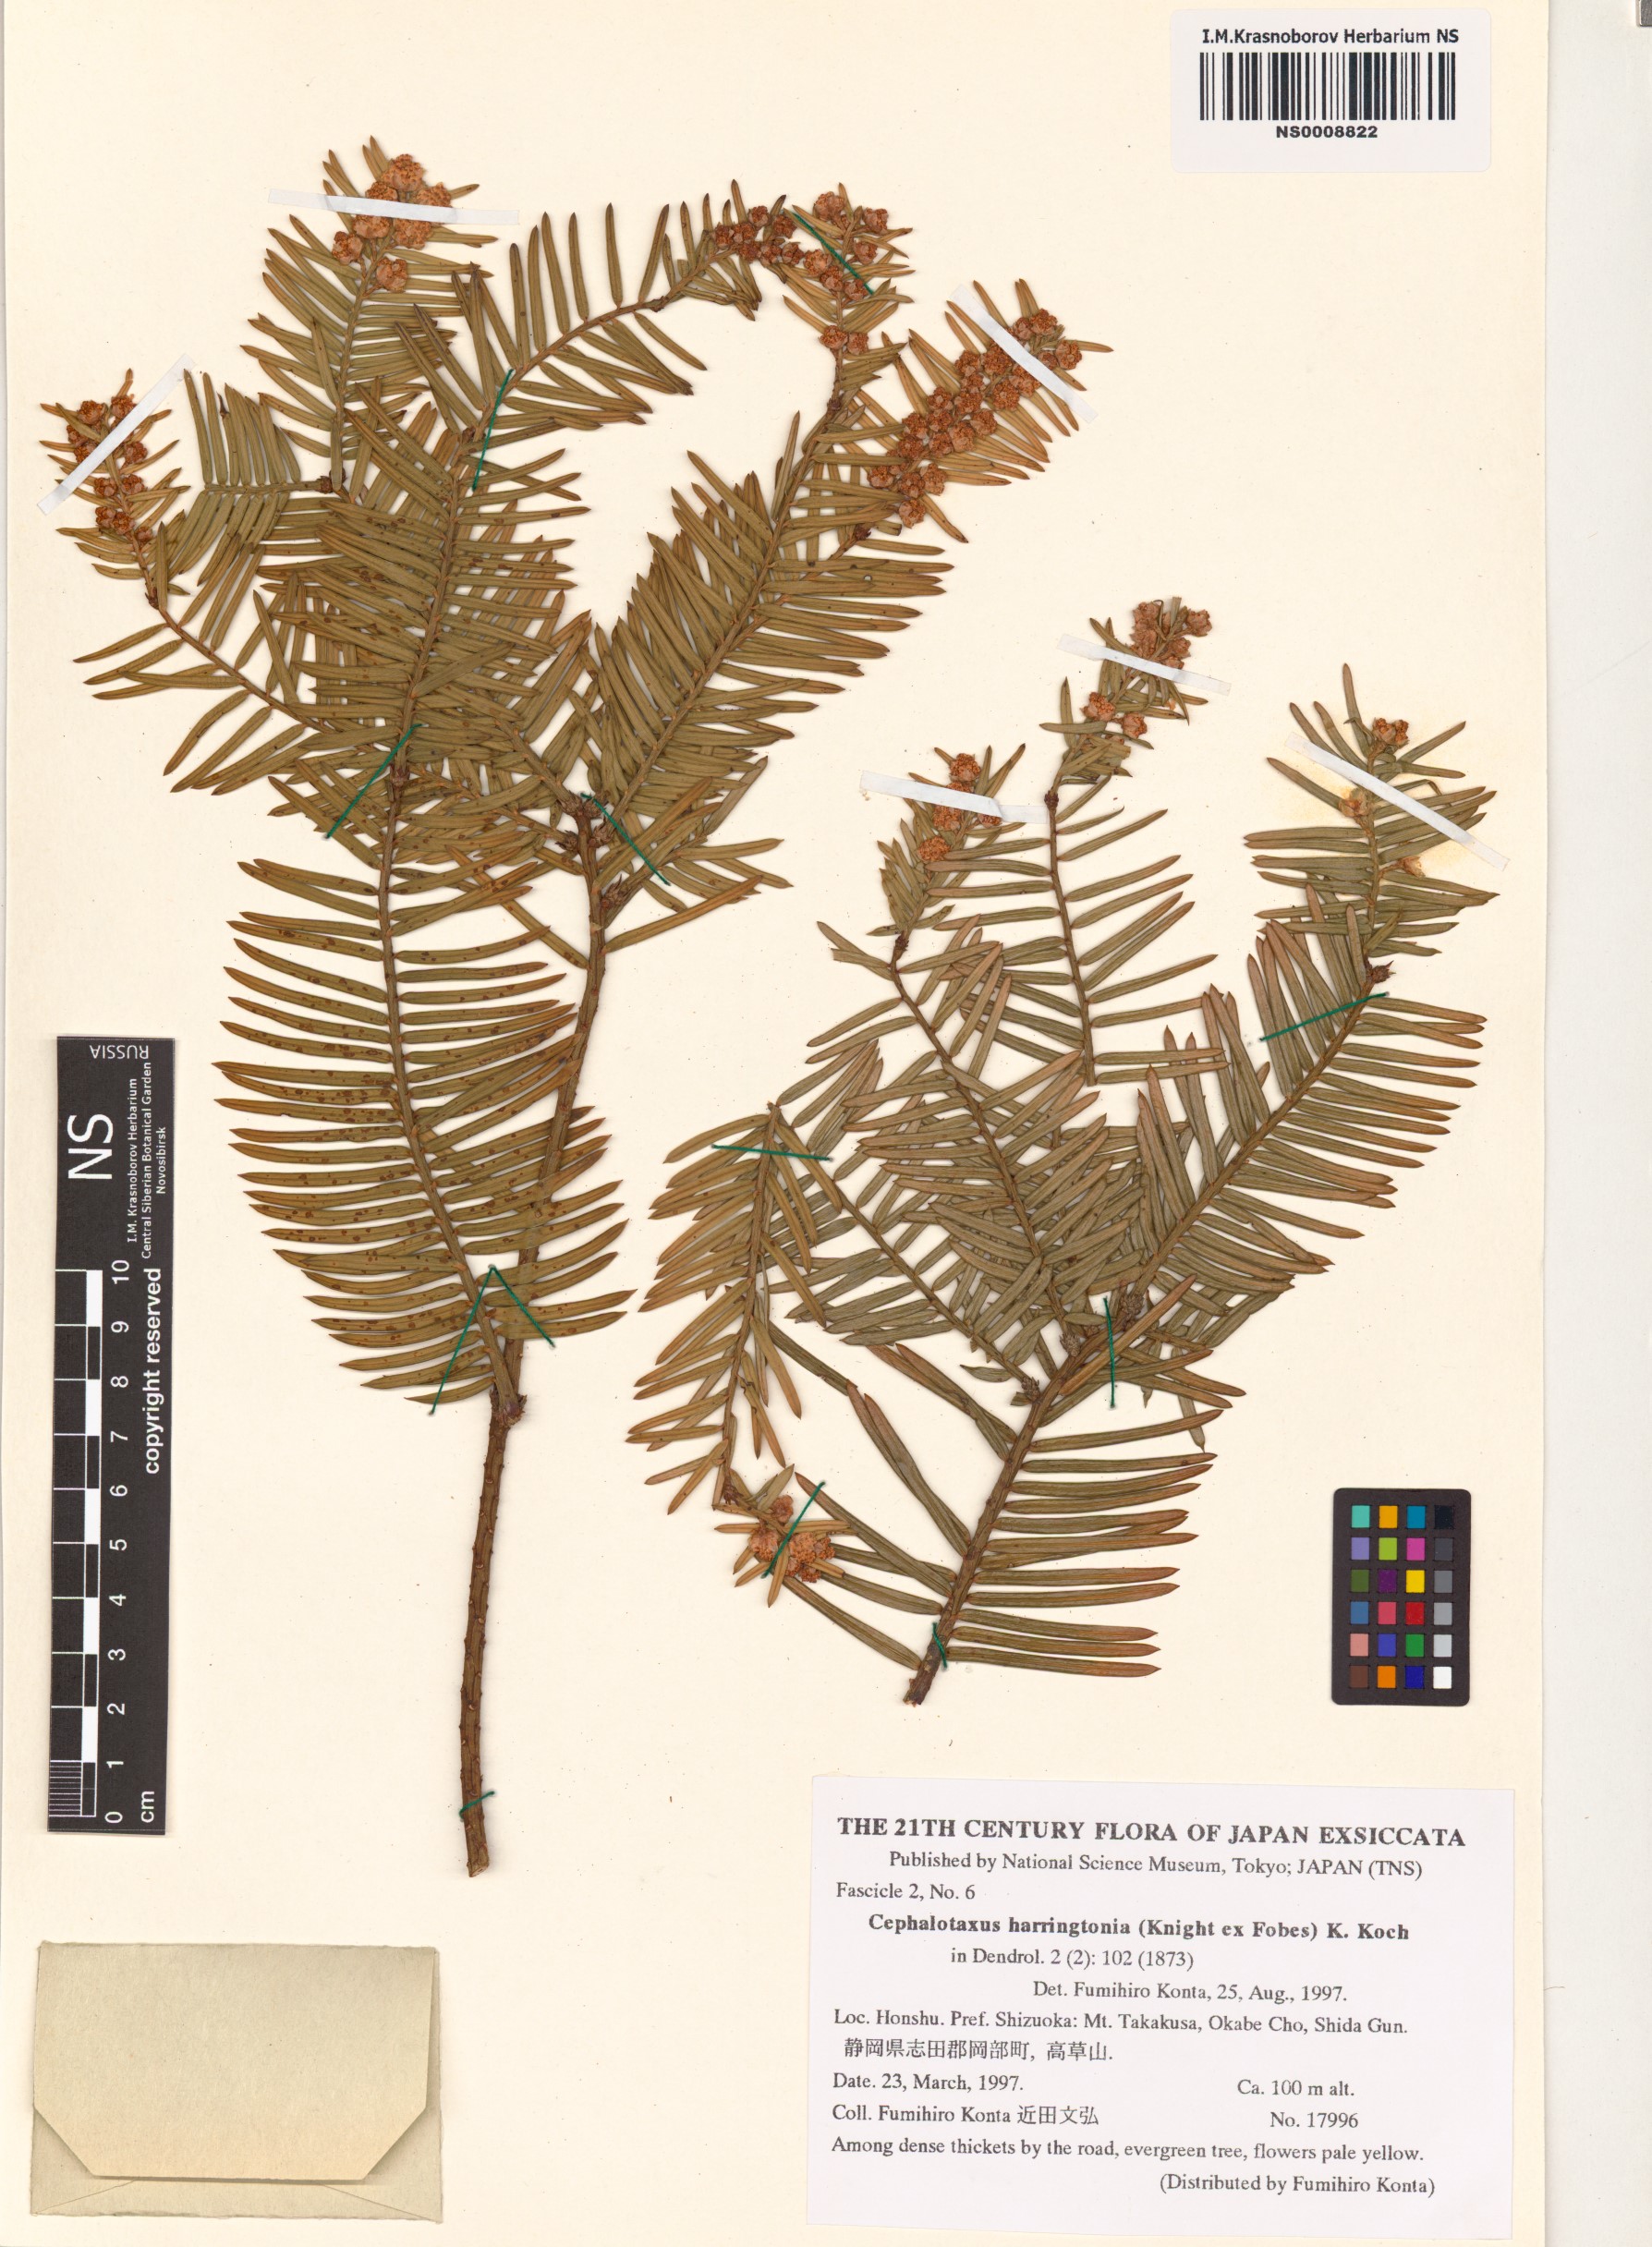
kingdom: Plantae
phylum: Tracheophyta
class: Pinopsida
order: Pinales
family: Cephalotaxaceae
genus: Cephalotaxus
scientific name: Cephalotaxus harringtonii
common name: Harrington's plum yew
